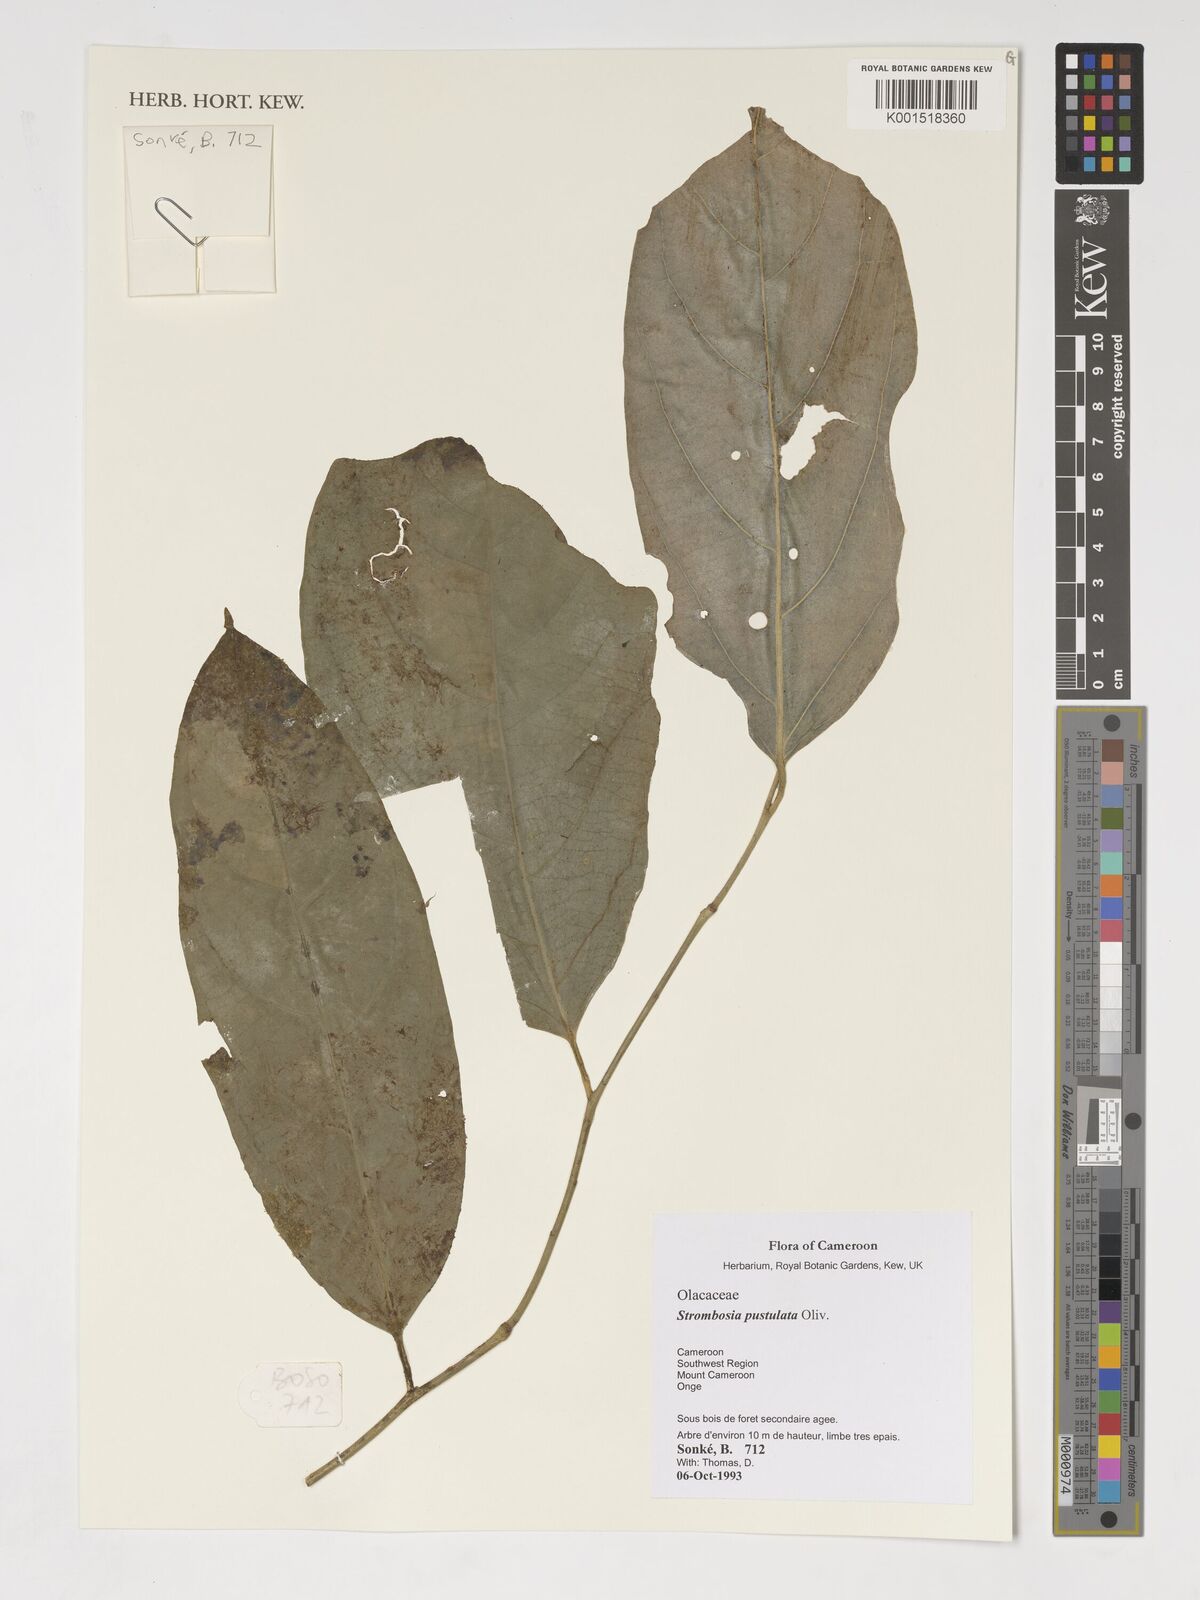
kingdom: Plantae
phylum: Tracheophyta
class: Magnoliopsida
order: Santalales
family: Strombosiaceae
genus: Strombosia
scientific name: Strombosia pustulata
